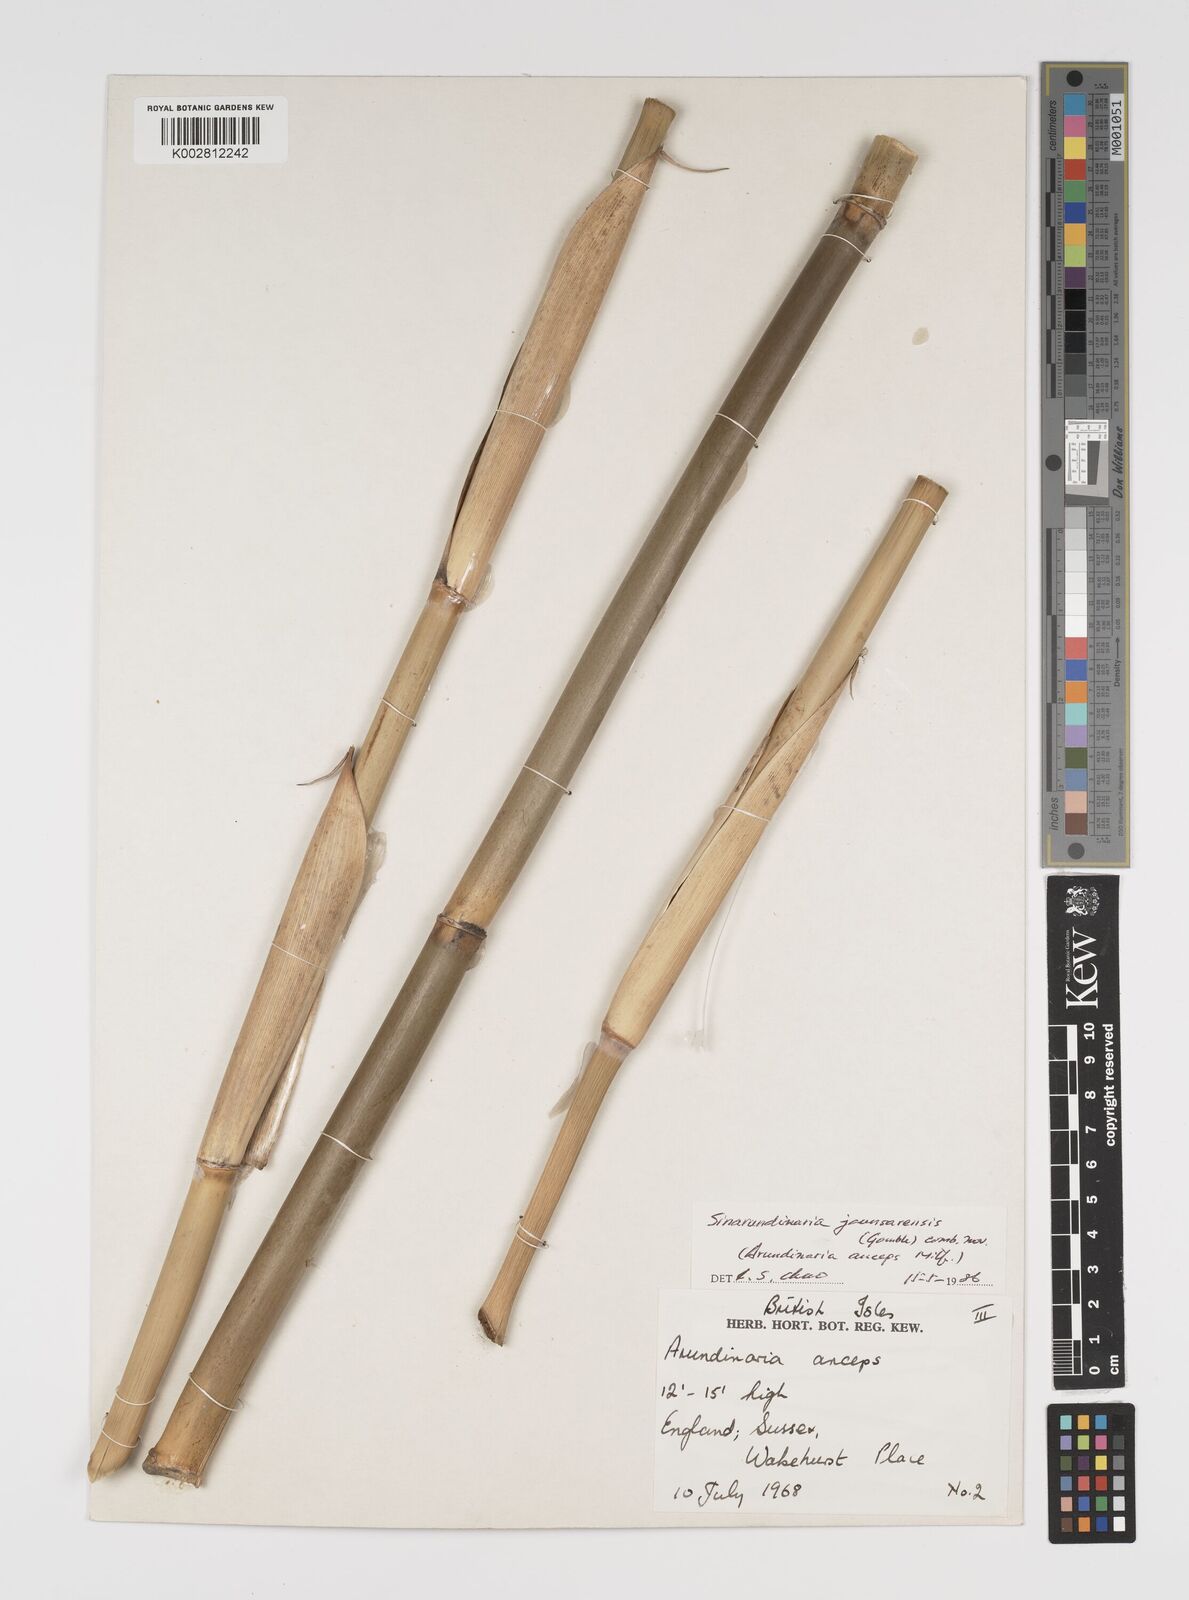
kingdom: Plantae
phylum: Tracheophyta
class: Liliopsida
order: Poales
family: Poaceae
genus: Yushania
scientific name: Yushania
